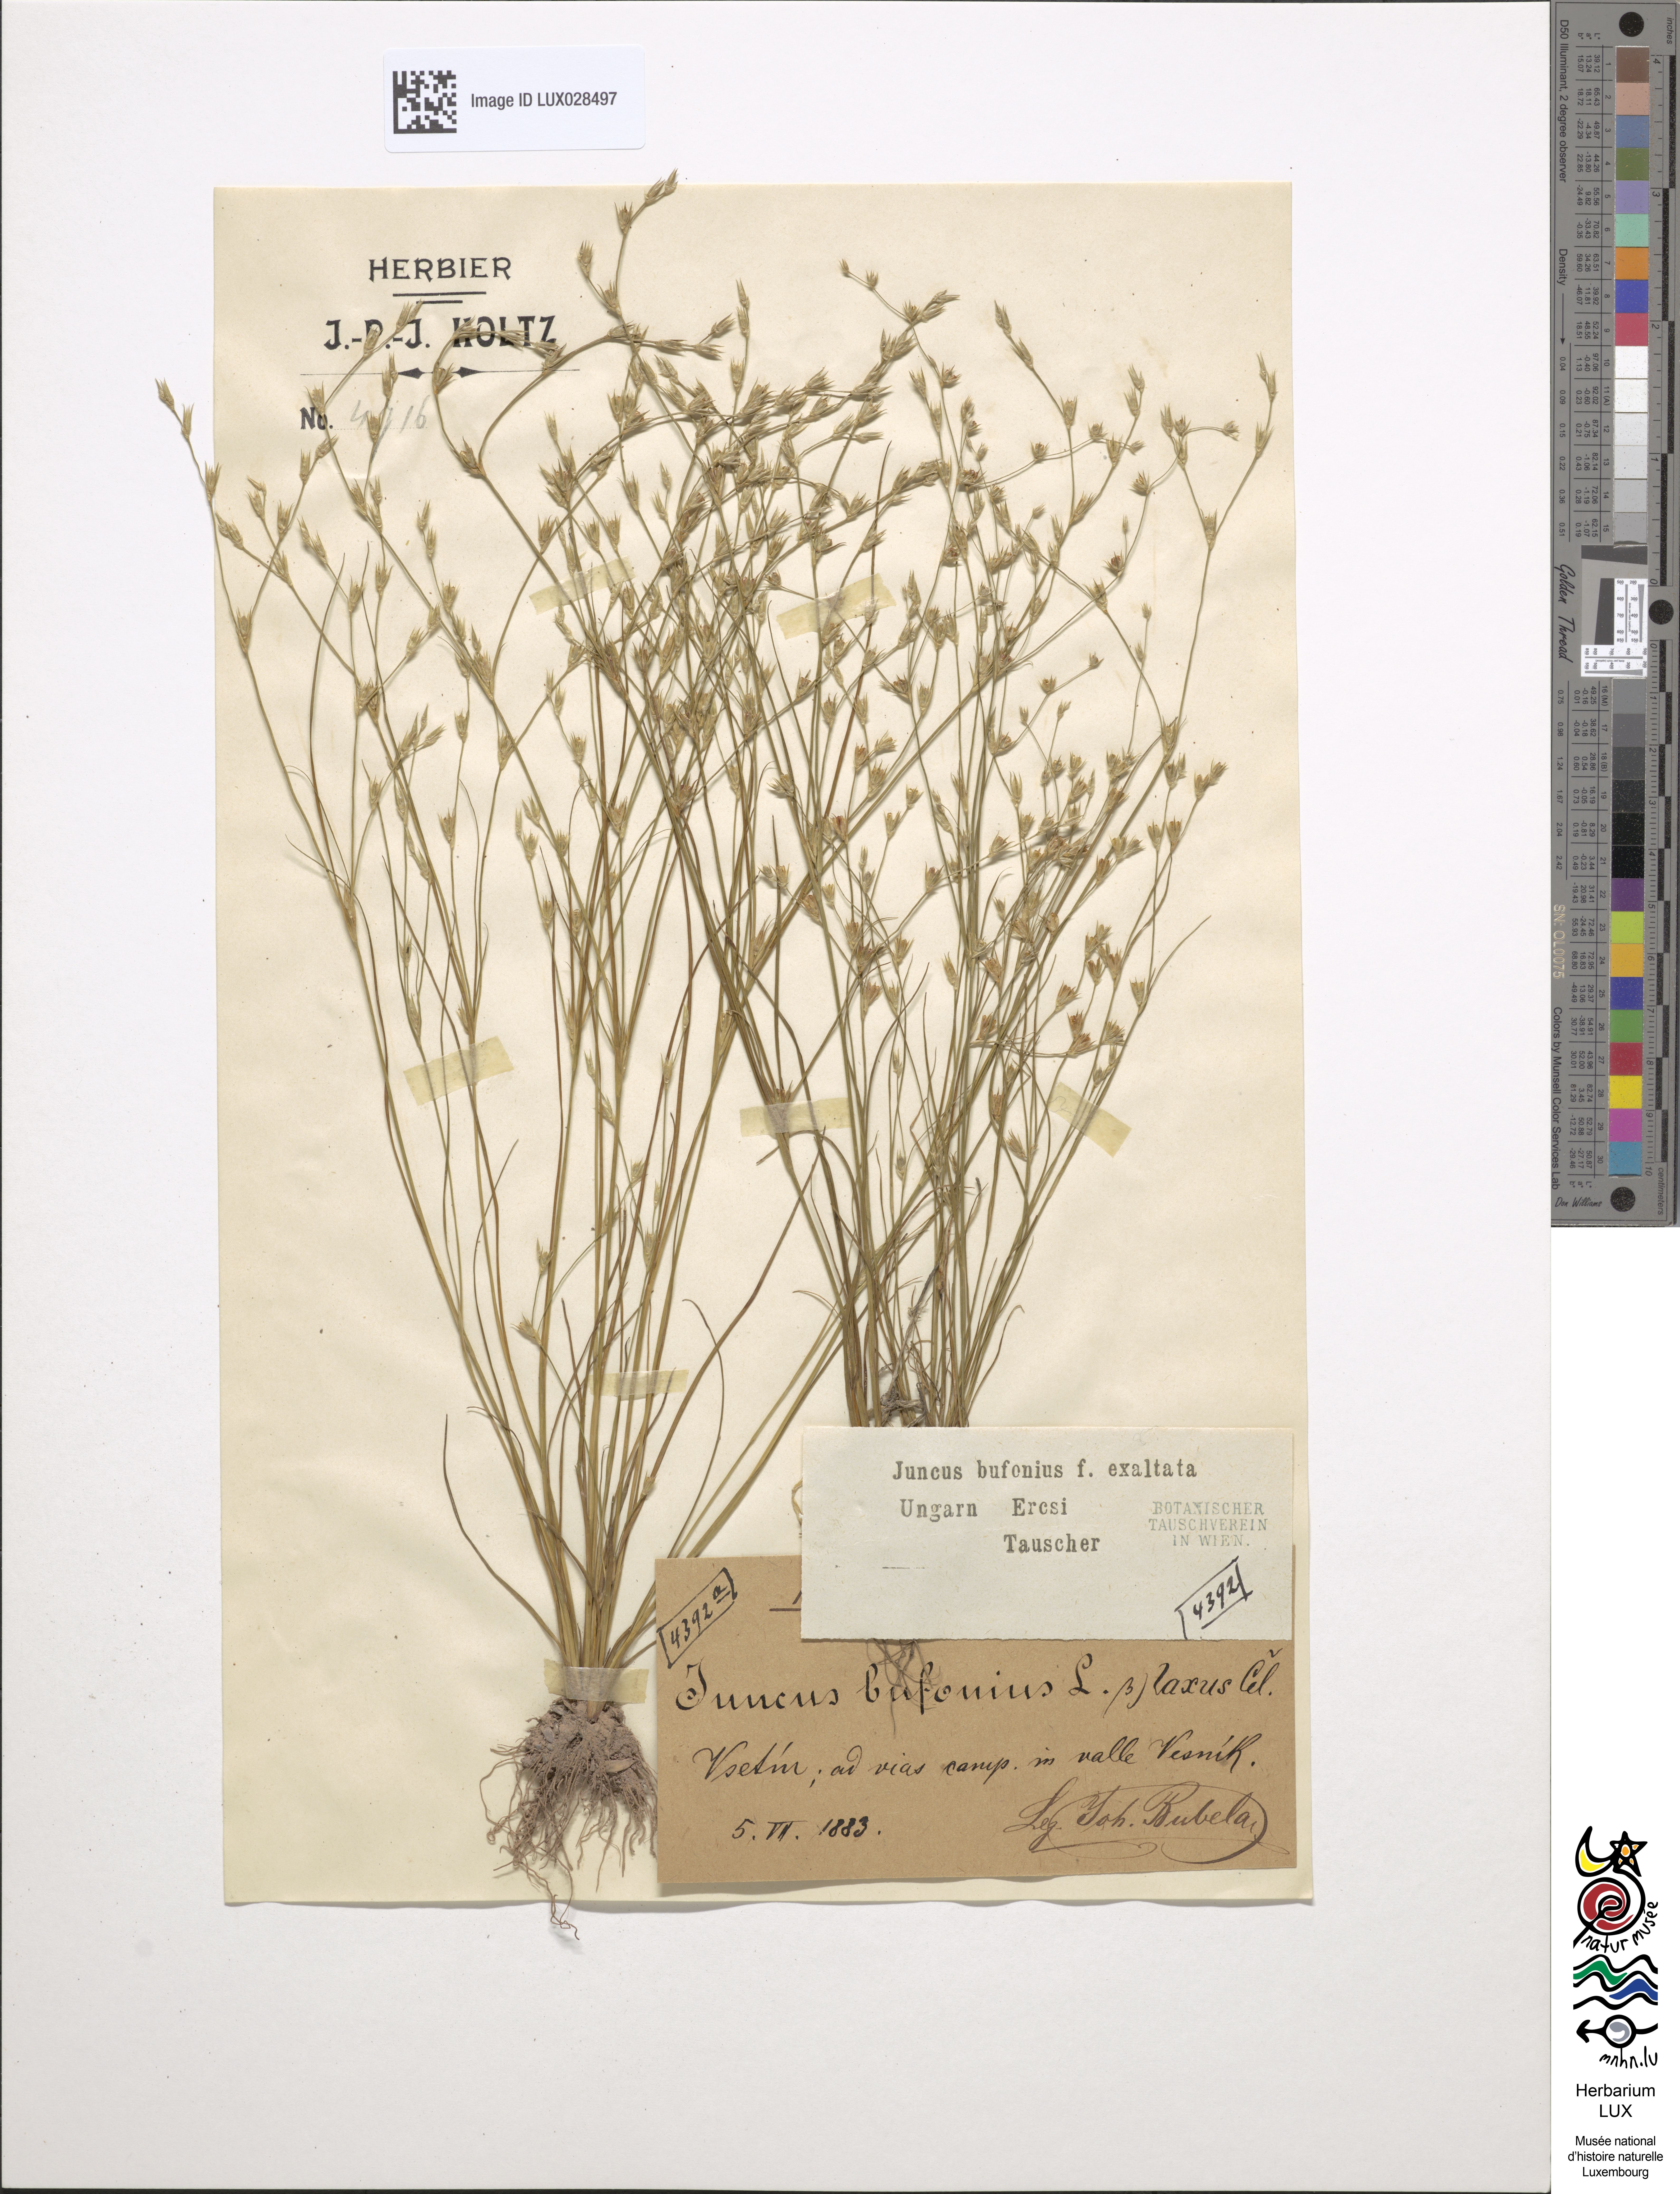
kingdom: Plantae
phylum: Tracheophyta
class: Liliopsida
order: Poales
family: Juncaceae
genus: Juncus
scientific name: Juncus bufonius
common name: Toad rush
